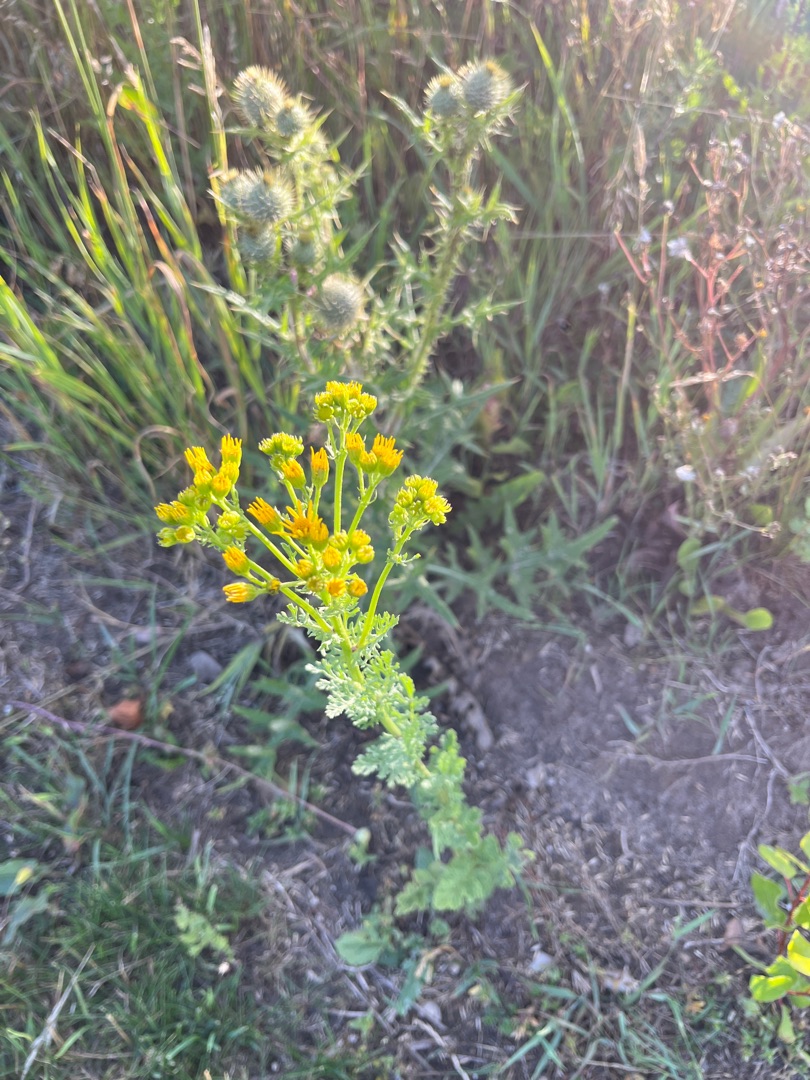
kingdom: Plantae
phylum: Tracheophyta
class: Magnoliopsida
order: Asterales
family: Asteraceae
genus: Jacobaea
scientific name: Jacobaea vulgaris
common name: Eng-brandbæger
